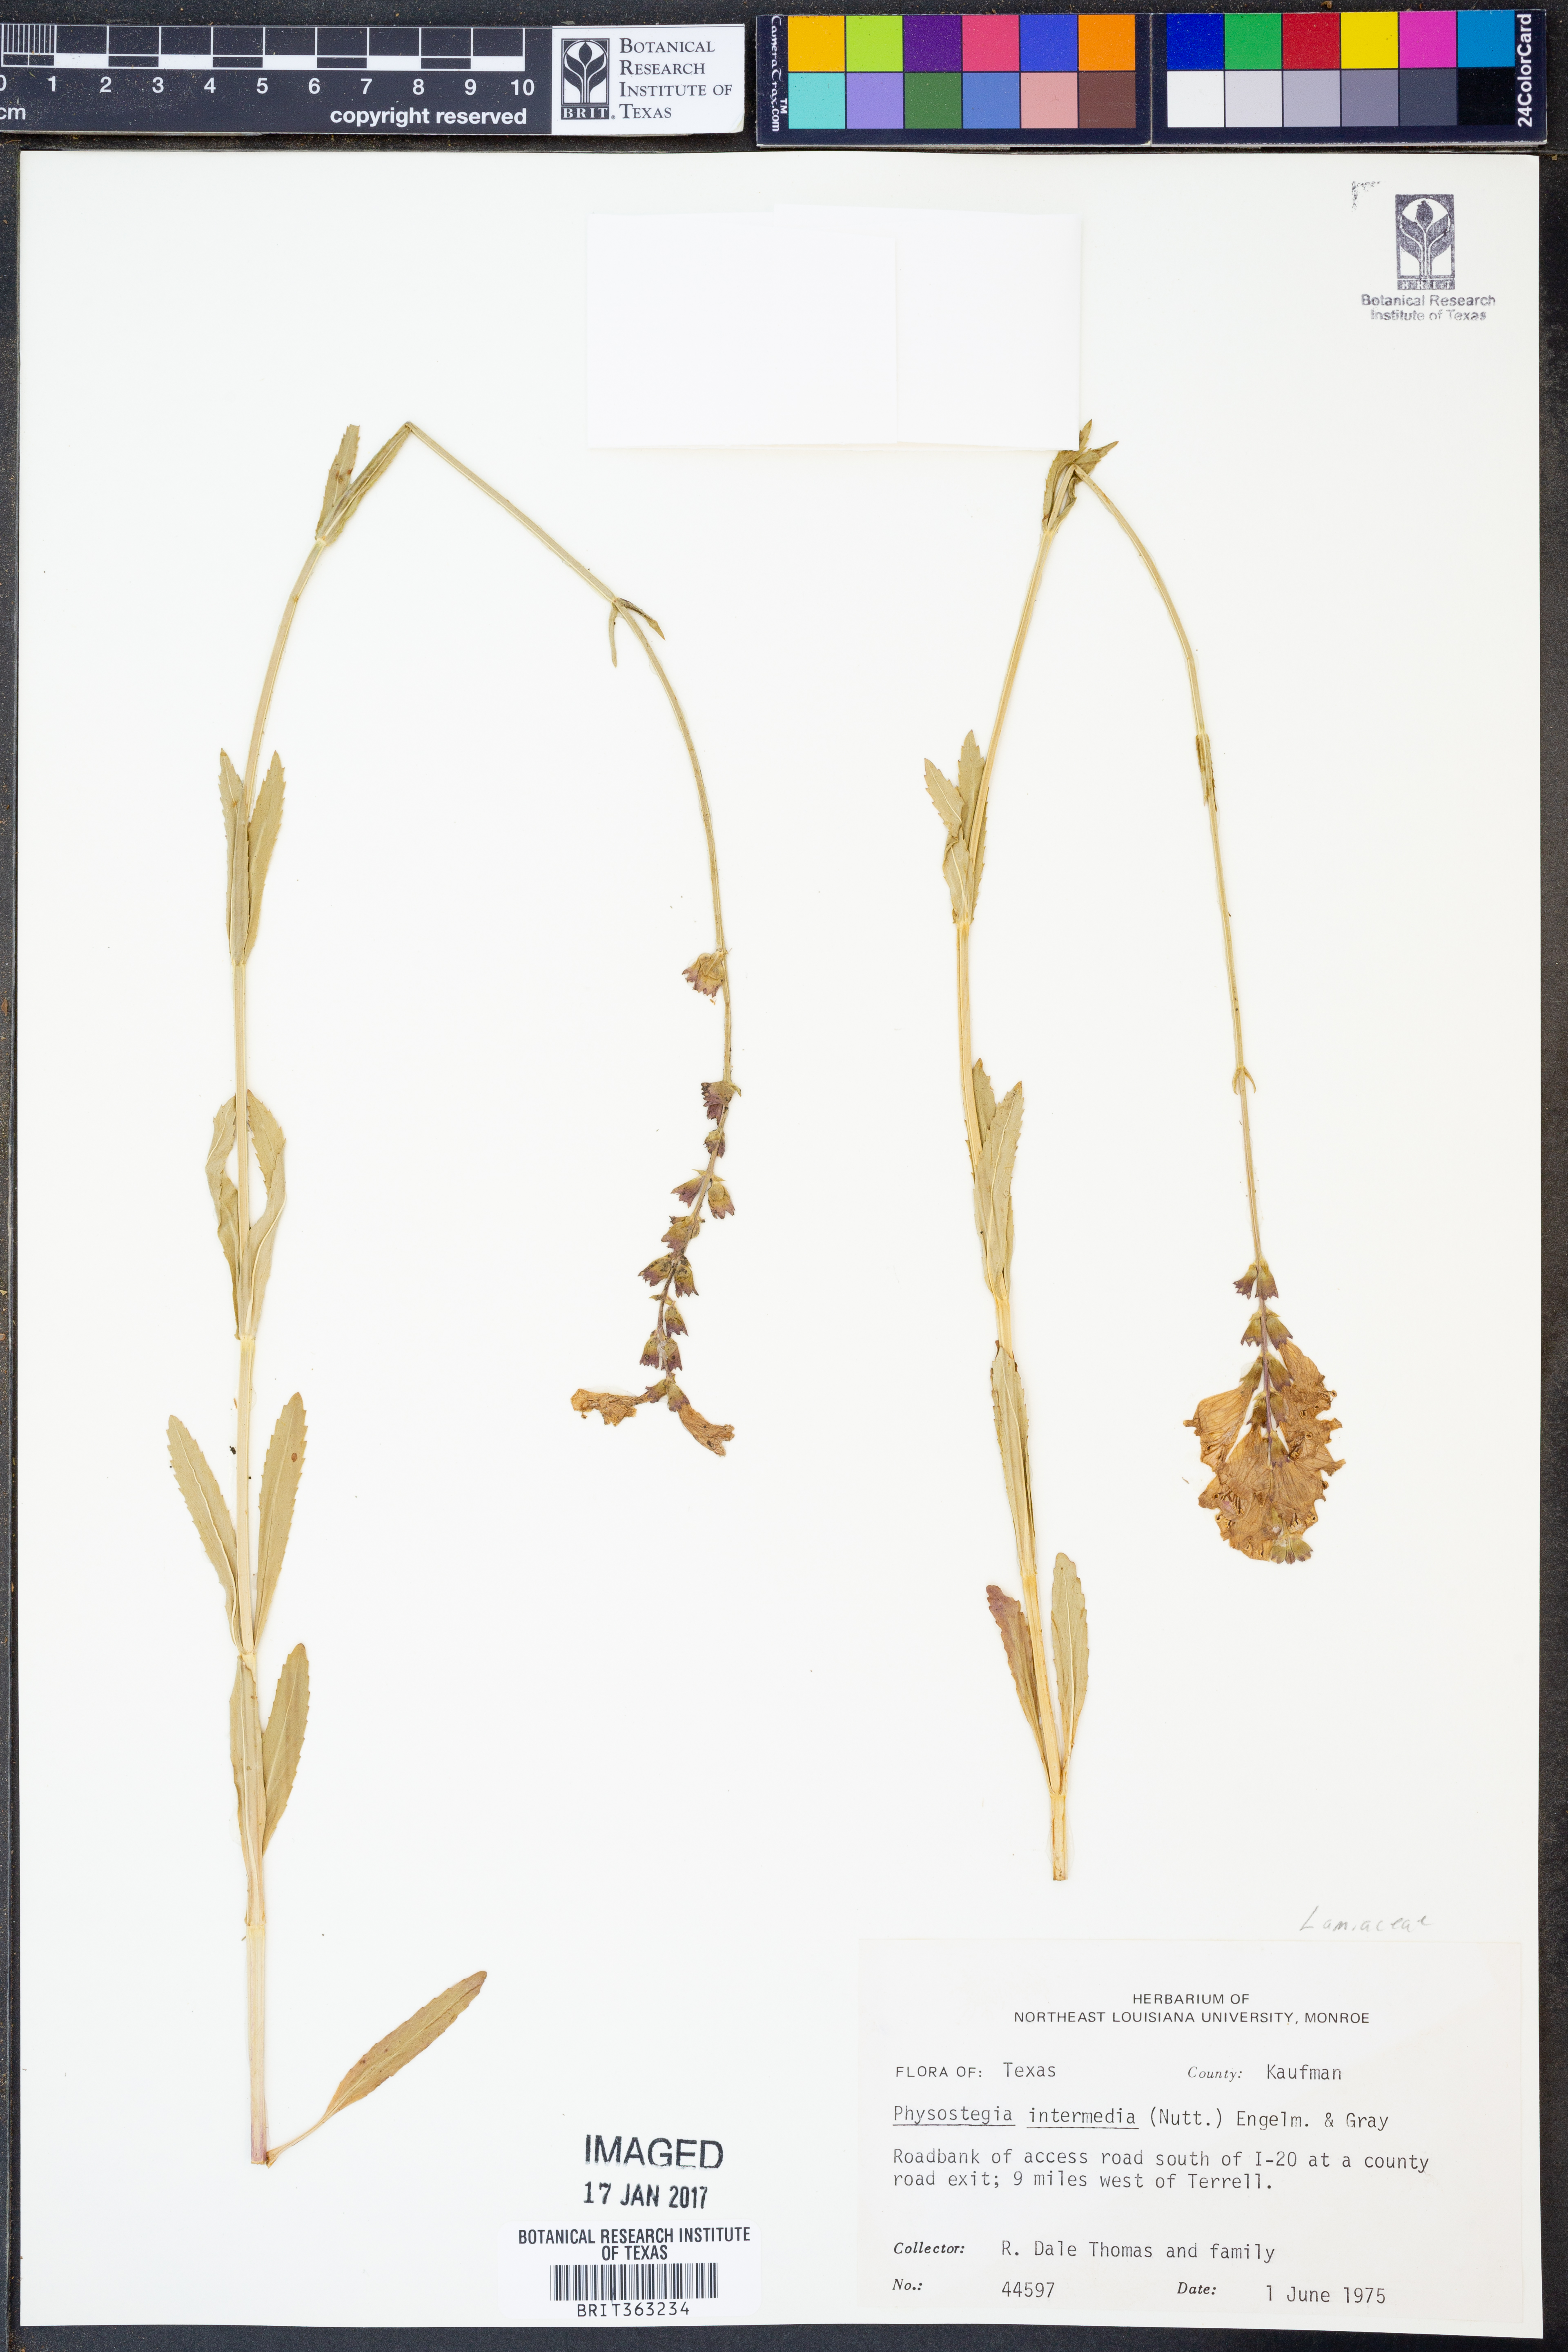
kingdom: Plantae
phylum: Tracheophyta
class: Magnoliopsida
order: Lamiales
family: Lamiaceae
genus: Physostegia
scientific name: Physostegia intermedia
